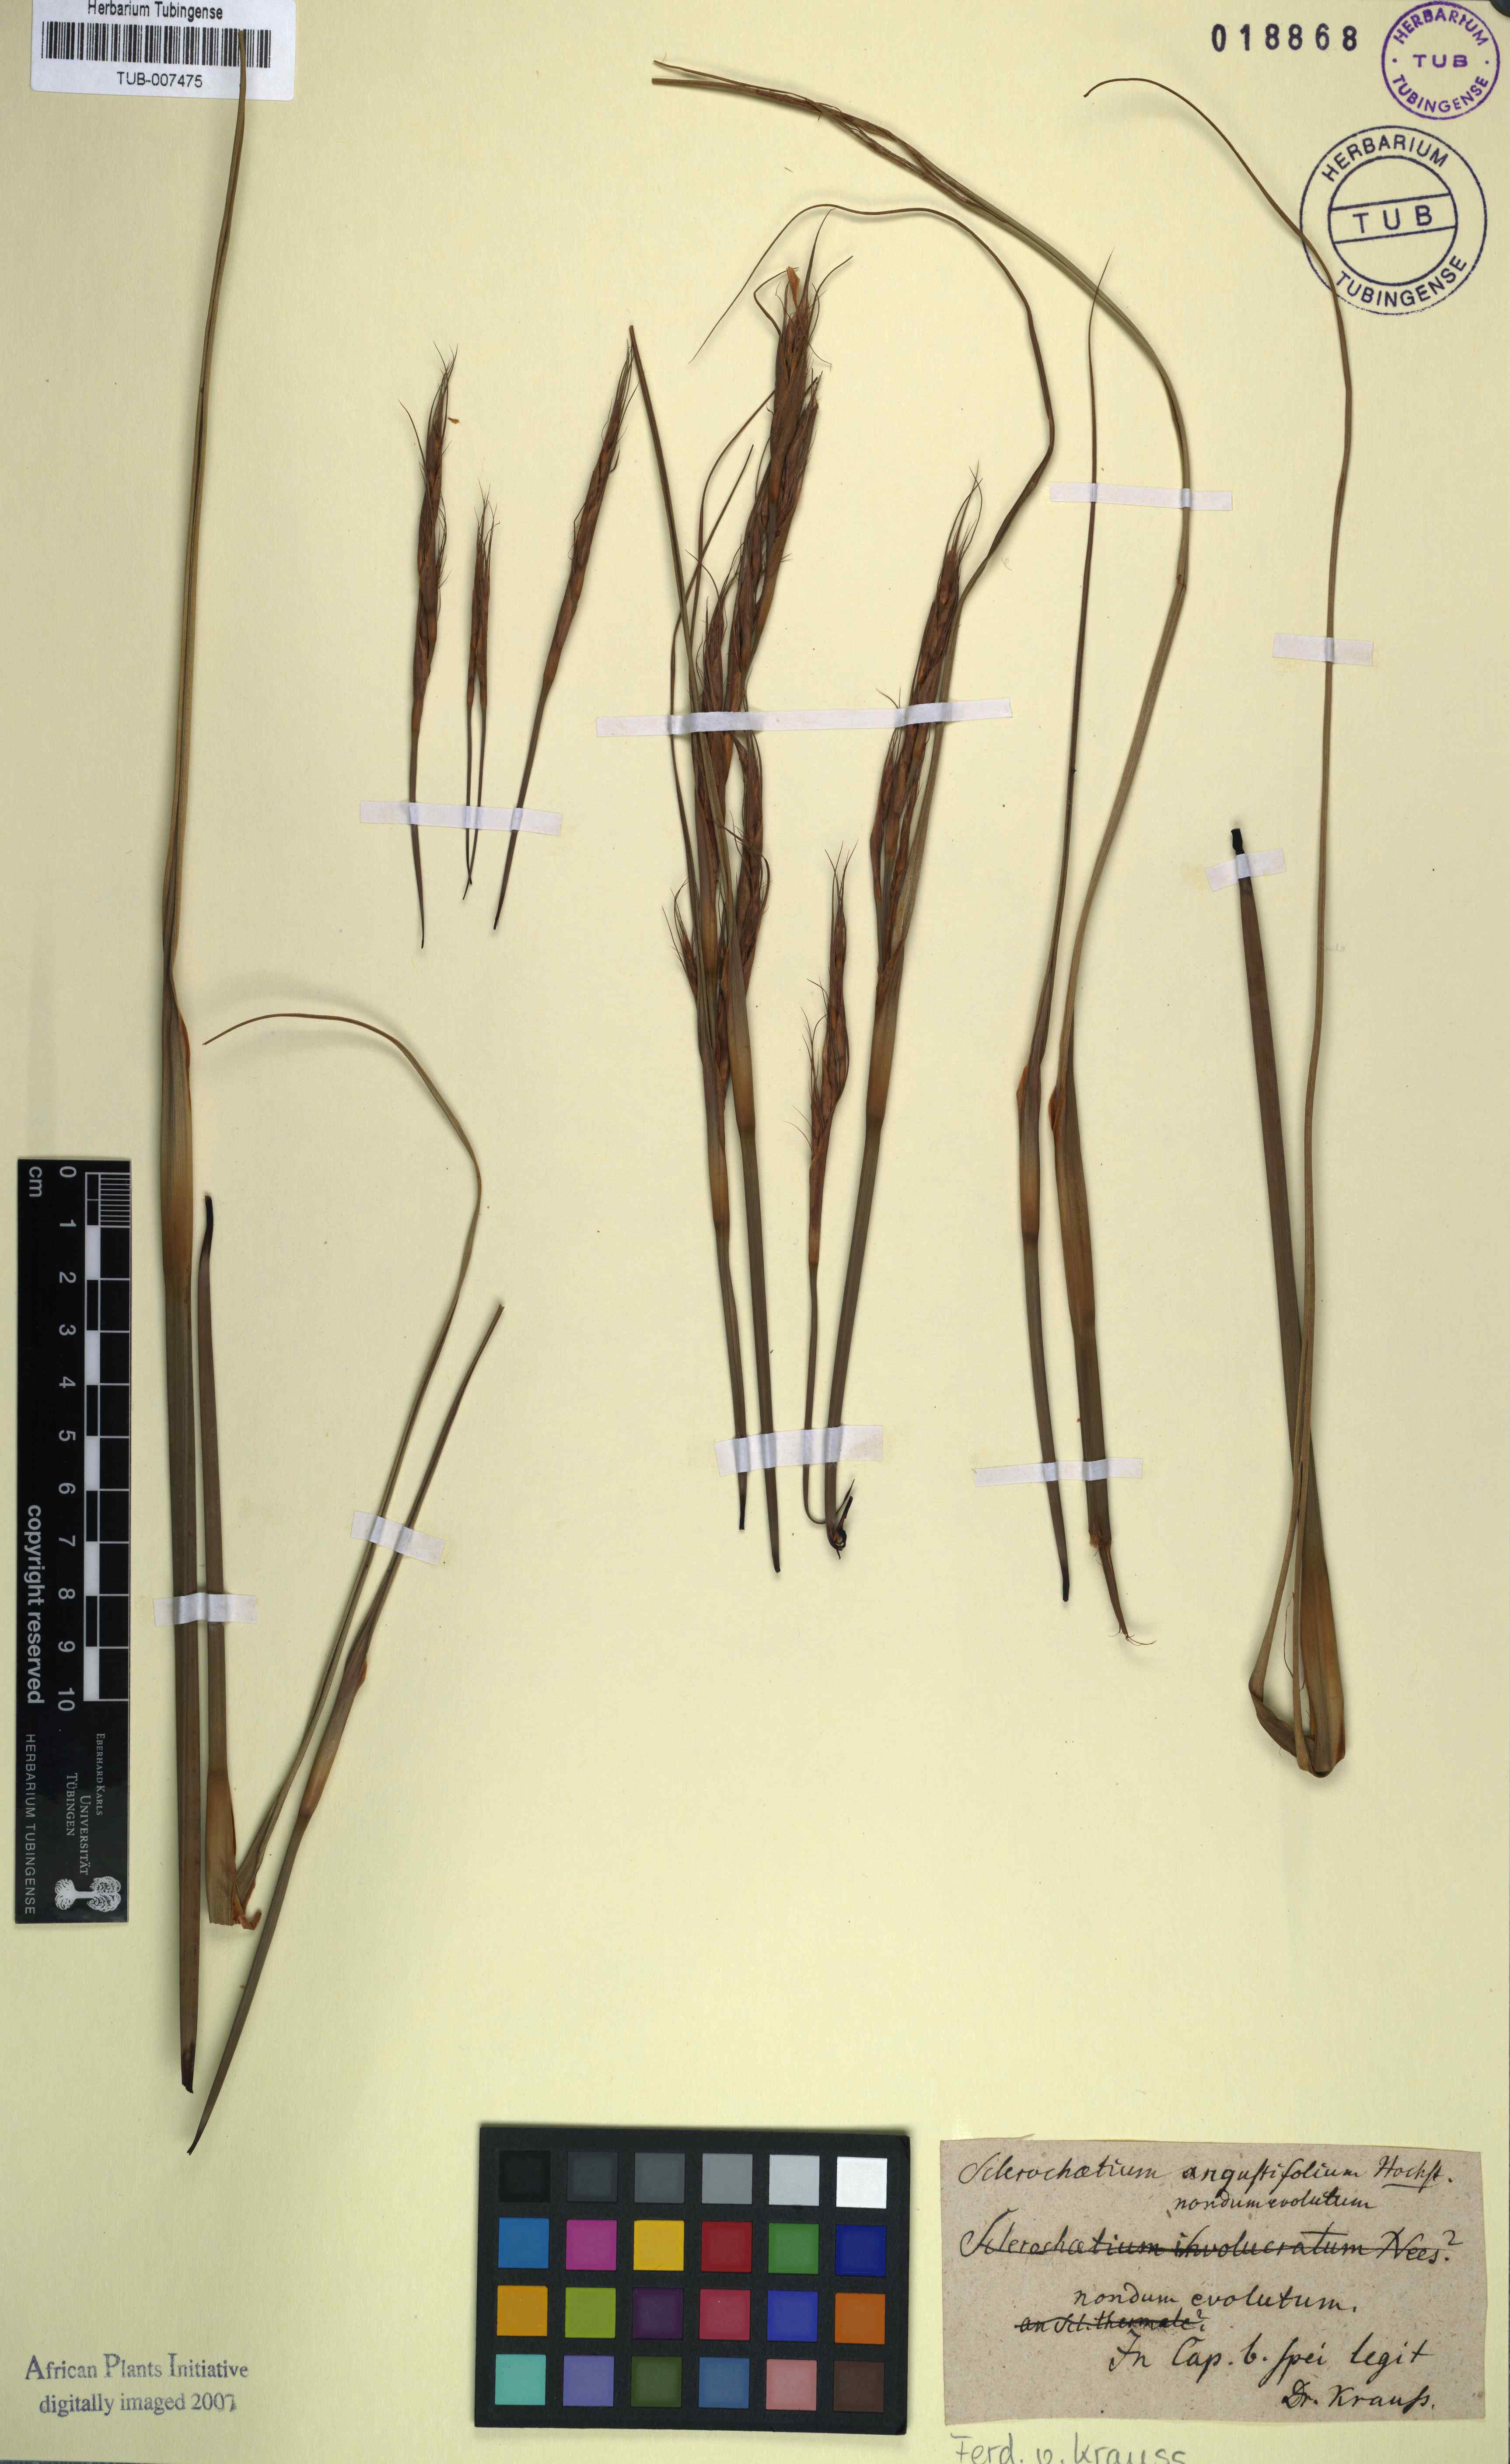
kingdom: Plantae
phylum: Tracheophyta
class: Liliopsida
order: Poales
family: Cyperaceae
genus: Tetraria
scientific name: Tetraria bromoides
